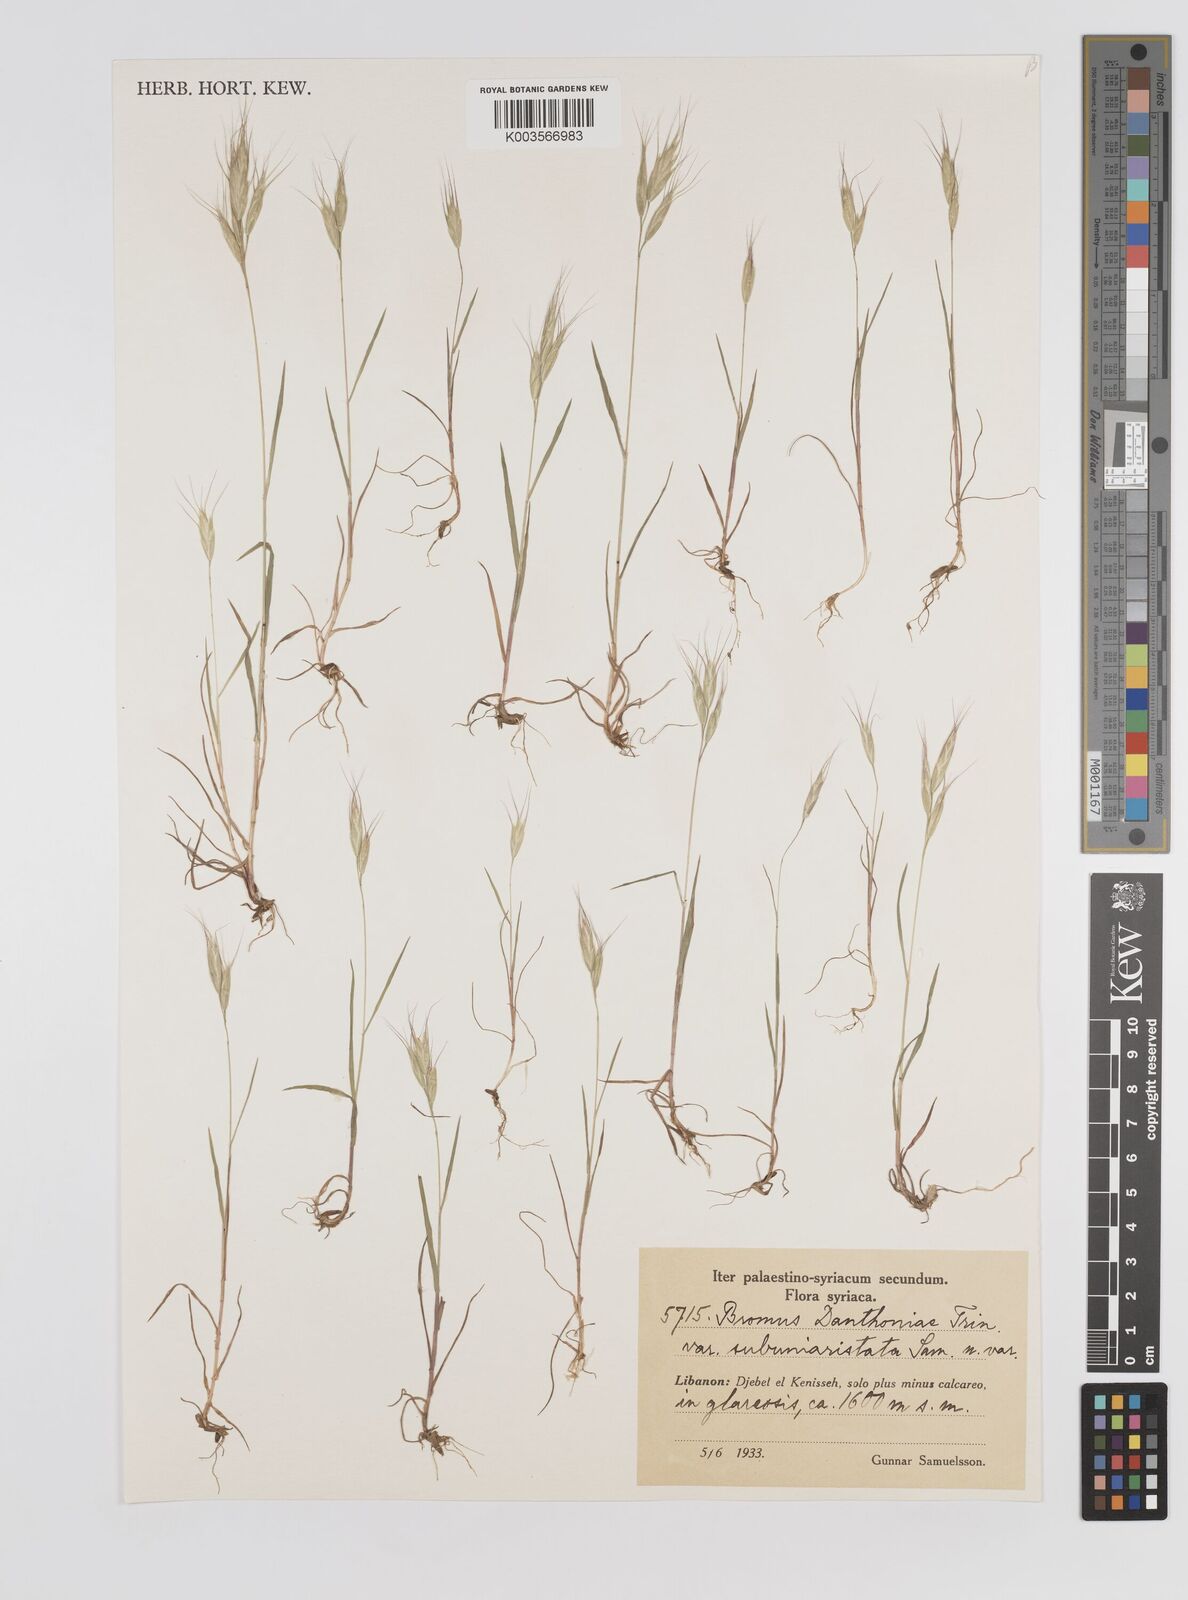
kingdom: Plantae
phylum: Tracheophyta
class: Liliopsida
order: Poales
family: Poaceae
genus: Bromus
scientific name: Bromus danthoniae
